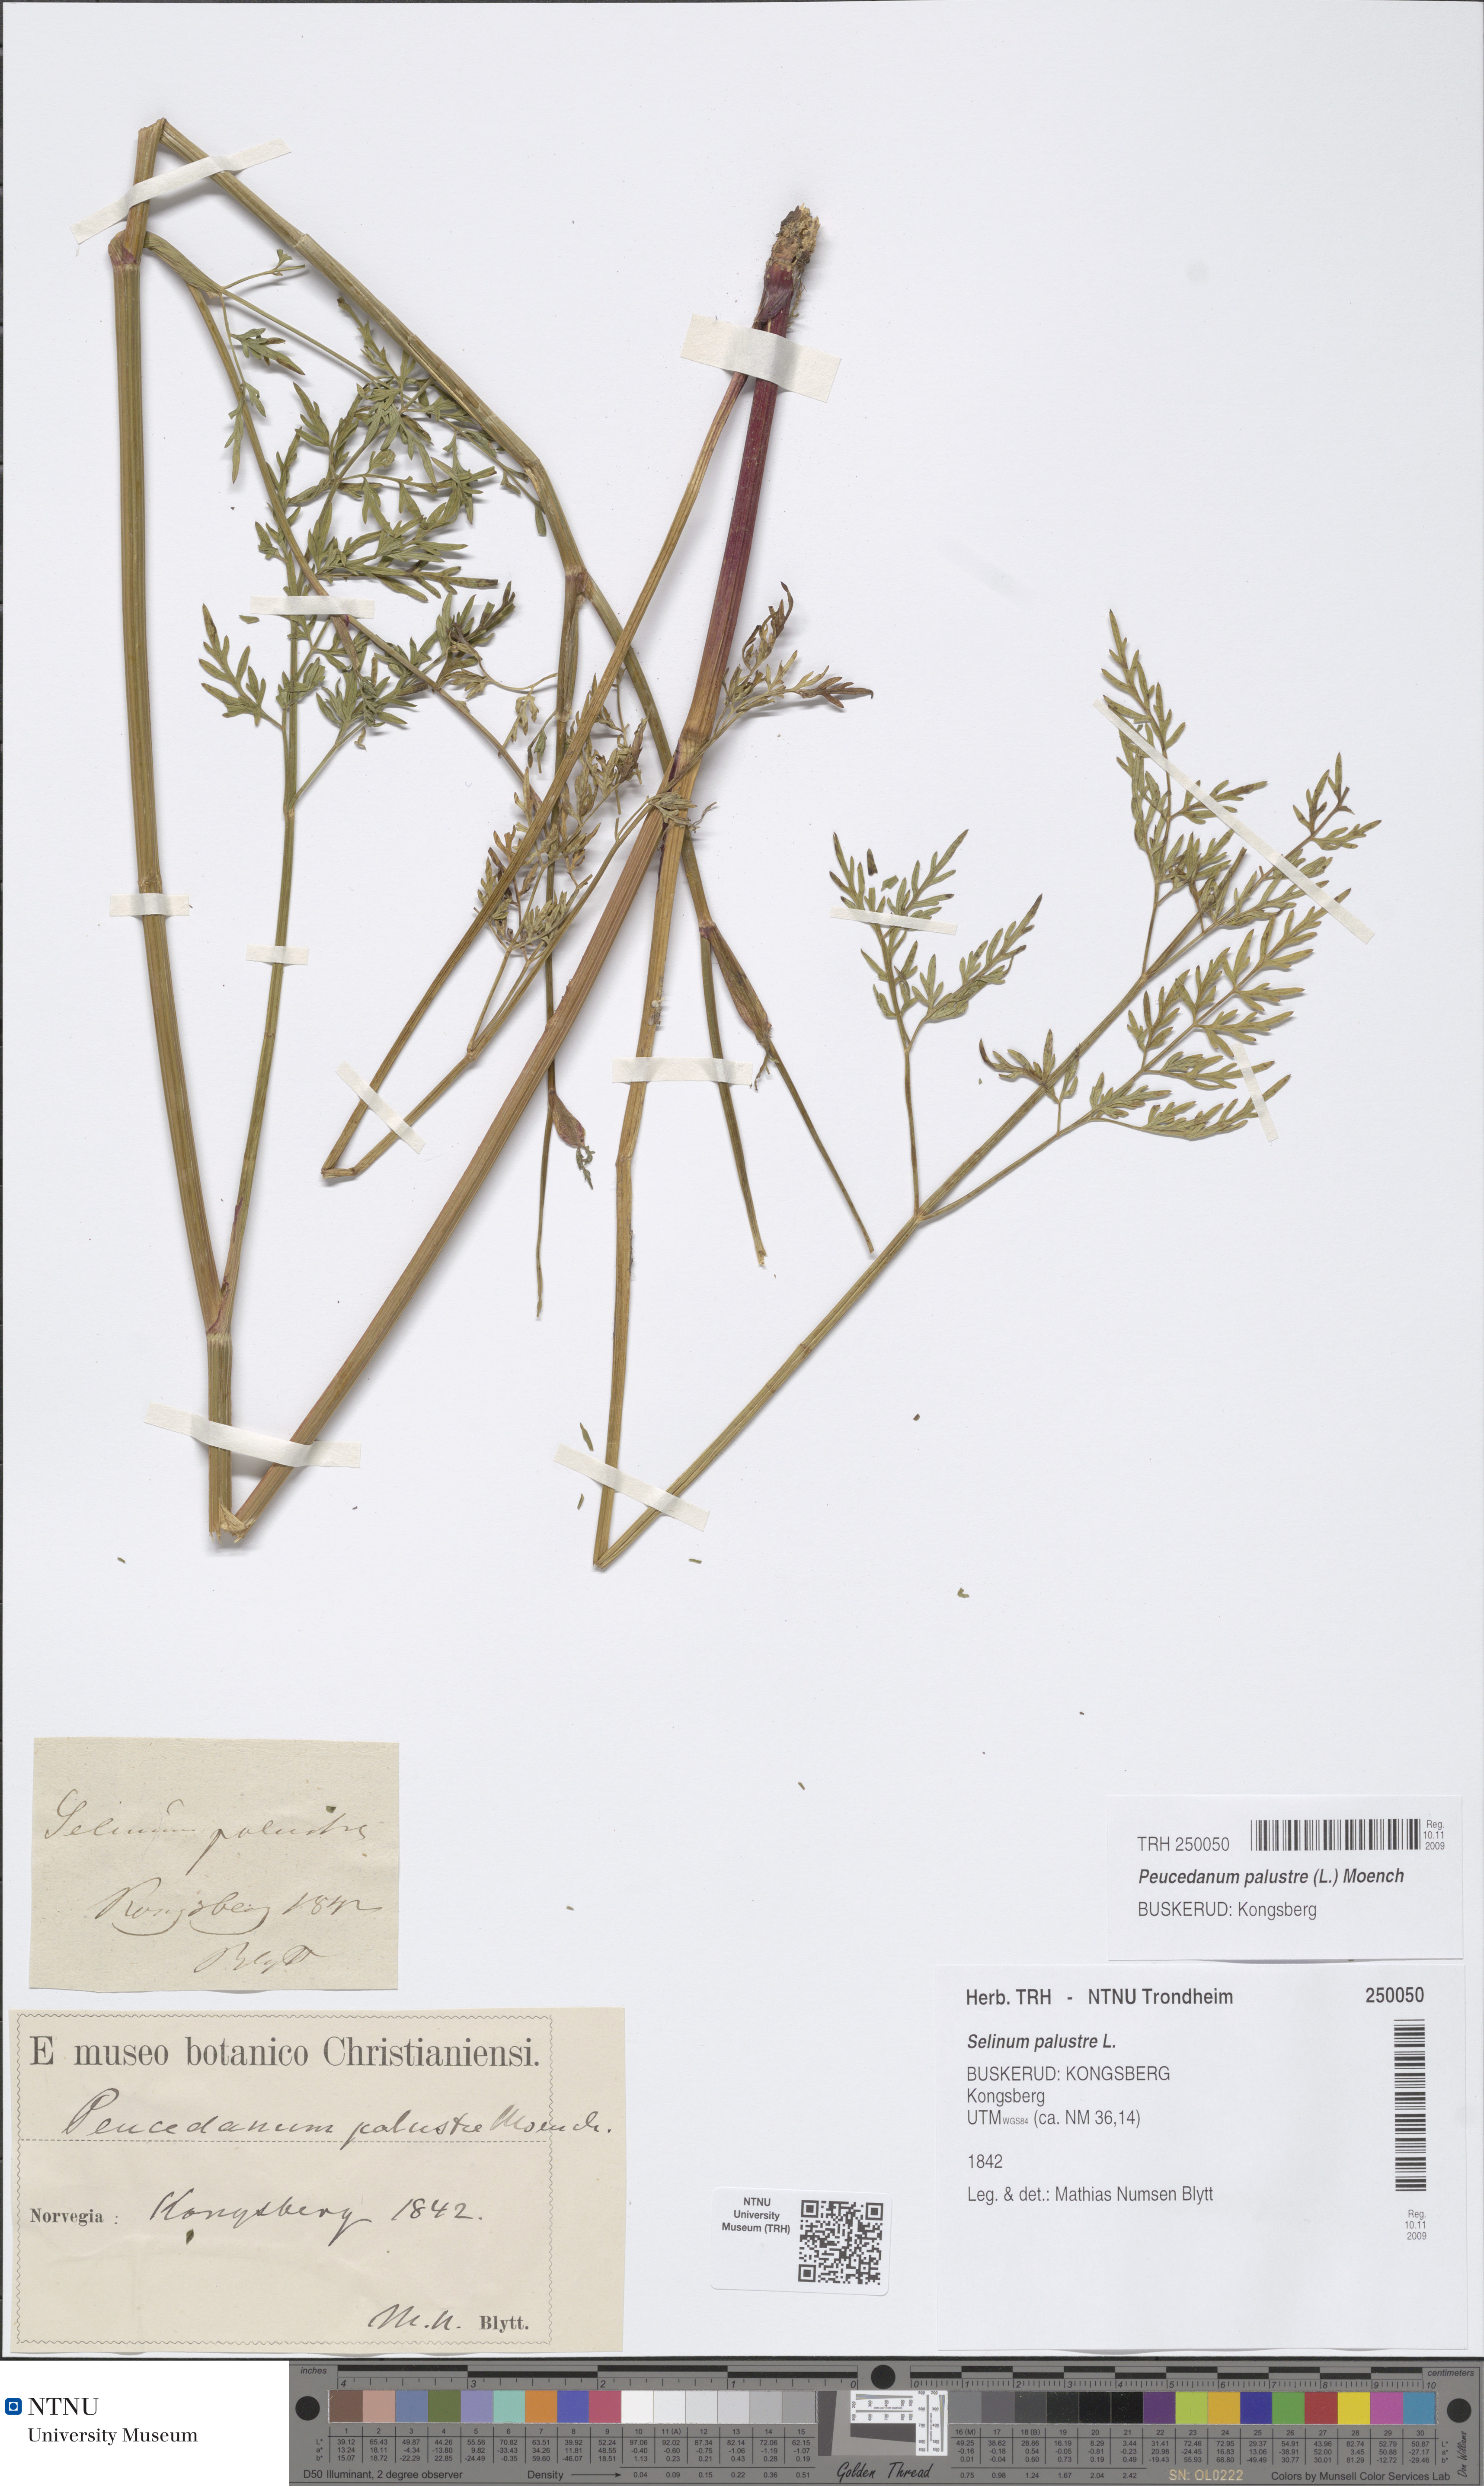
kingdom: Plantae
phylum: Tracheophyta
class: Magnoliopsida
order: Apiales
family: Apiaceae
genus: Thysselinum
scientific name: Thysselinum palustre
